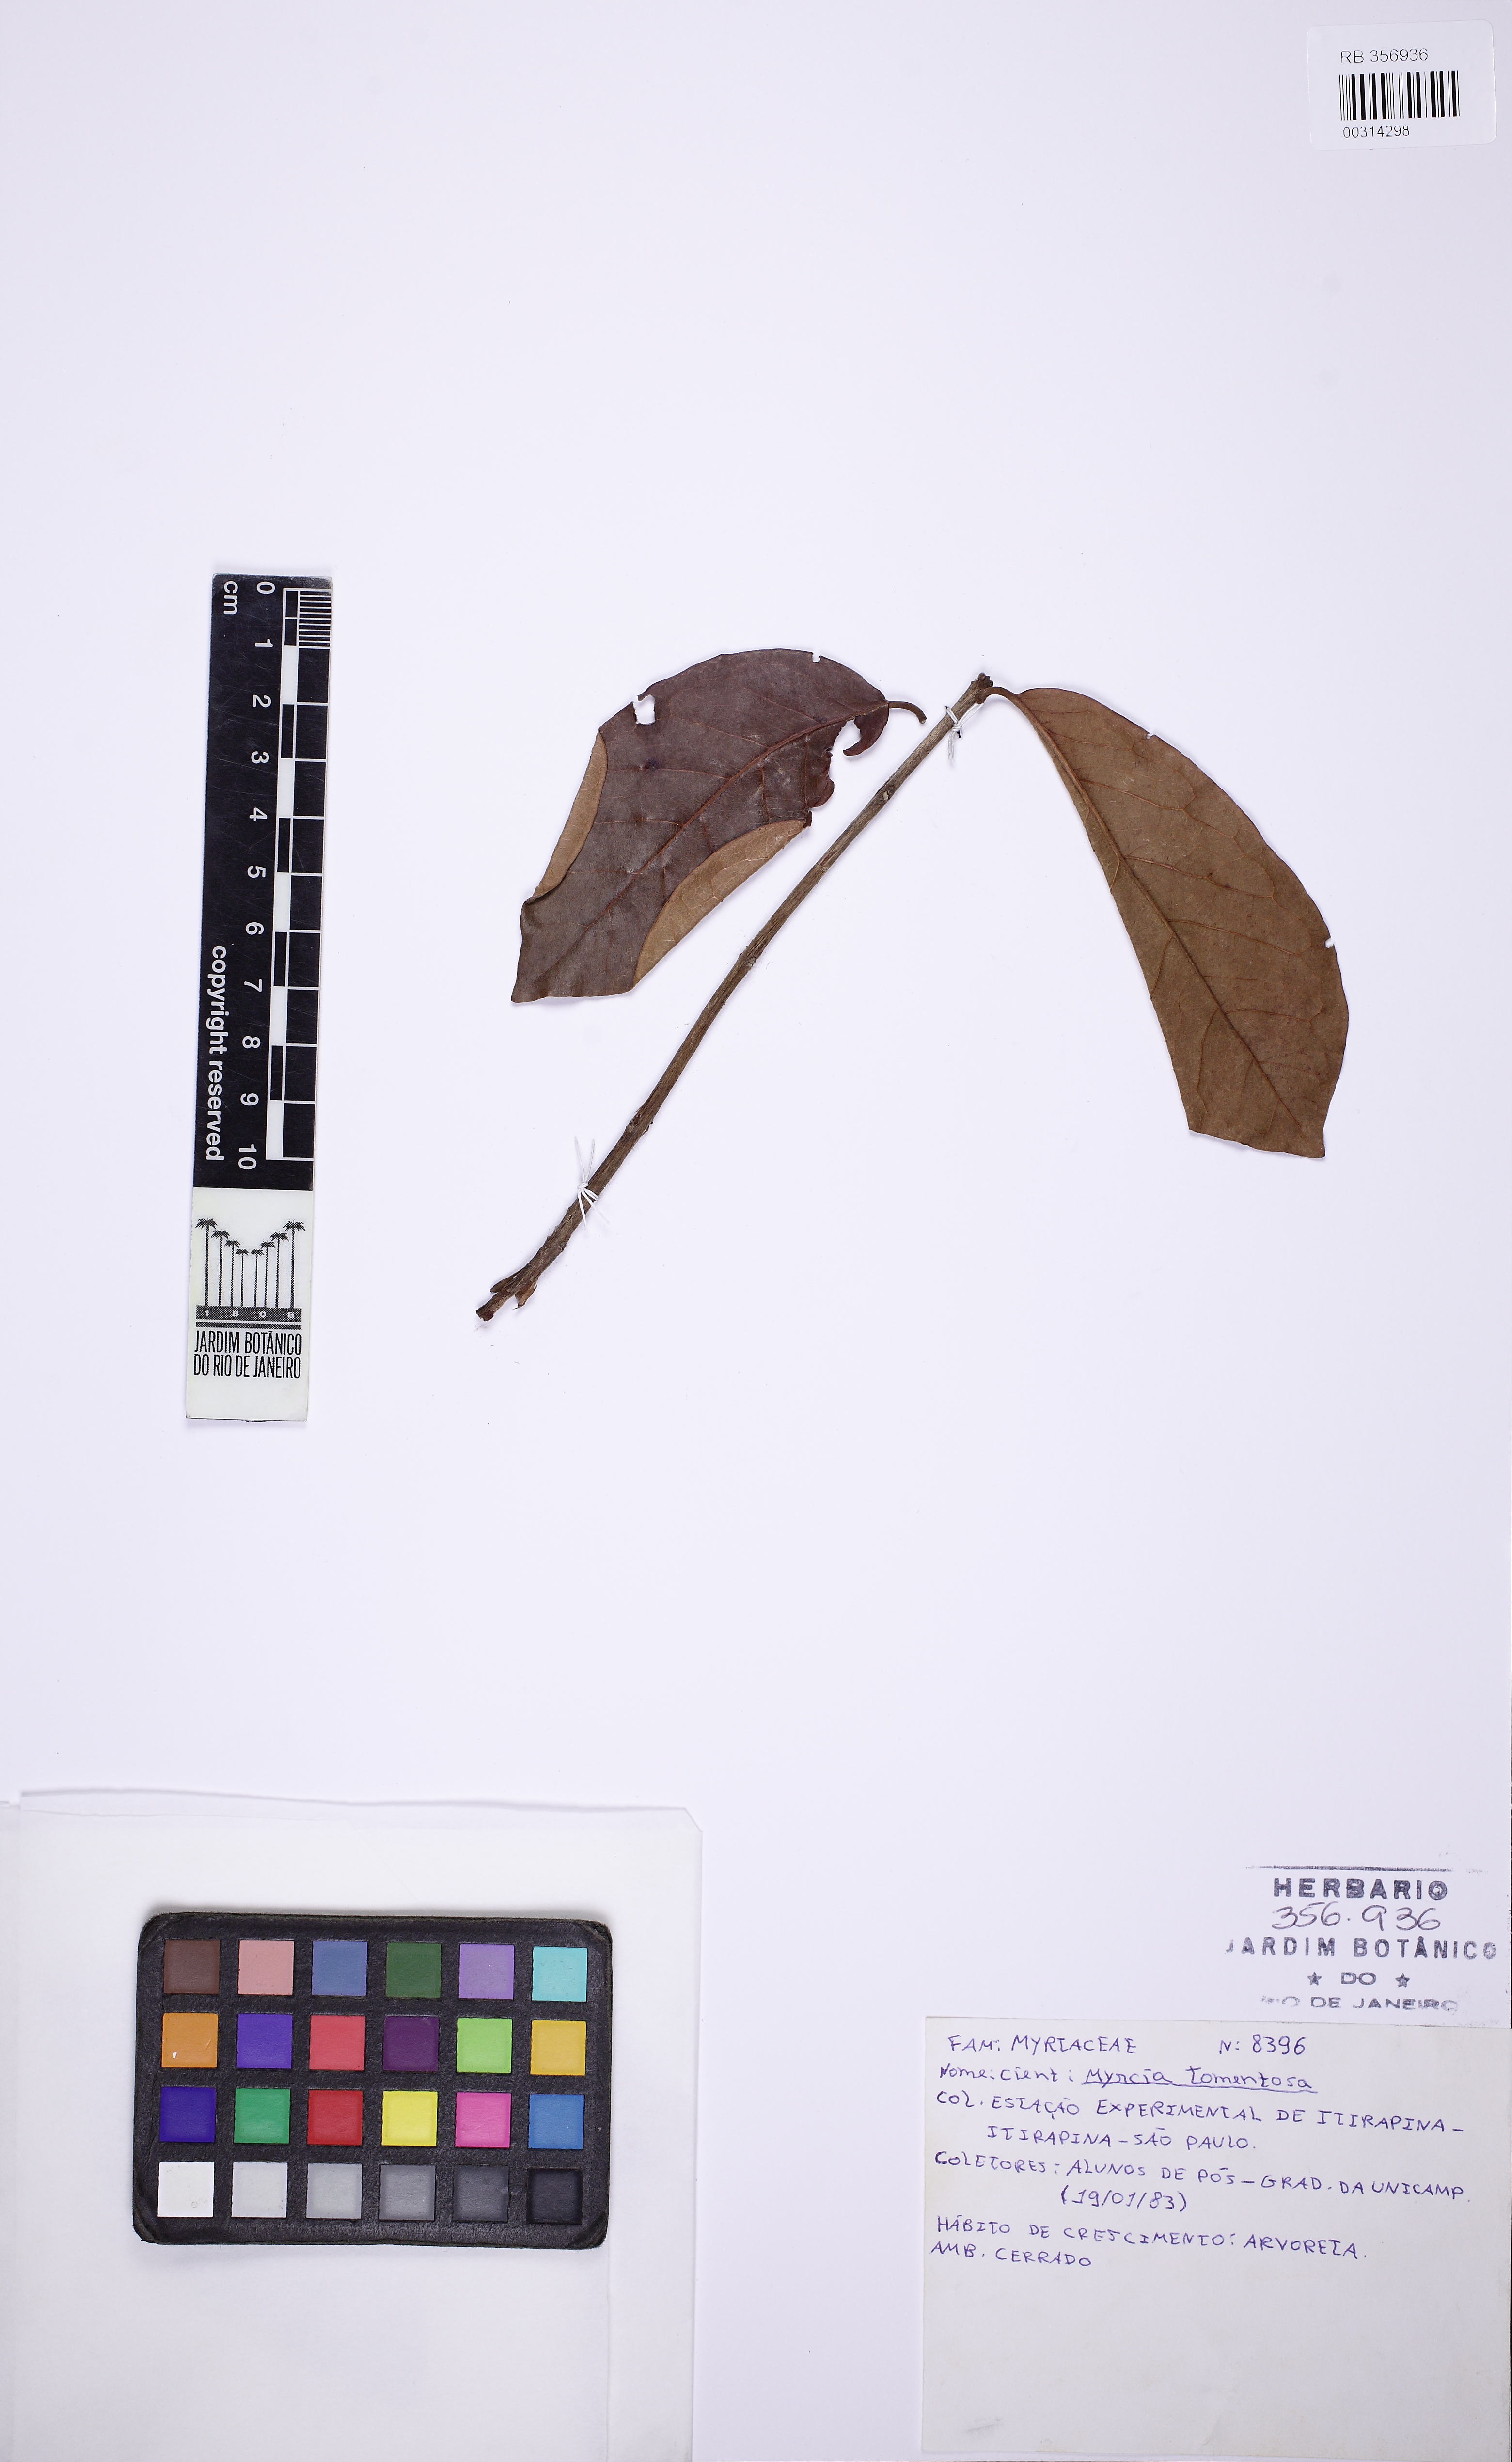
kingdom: Plantae
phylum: Tracheophyta
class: Magnoliopsida
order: Myrtales
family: Myrtaceae
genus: Myrcia
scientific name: Myrcia tomentosa
